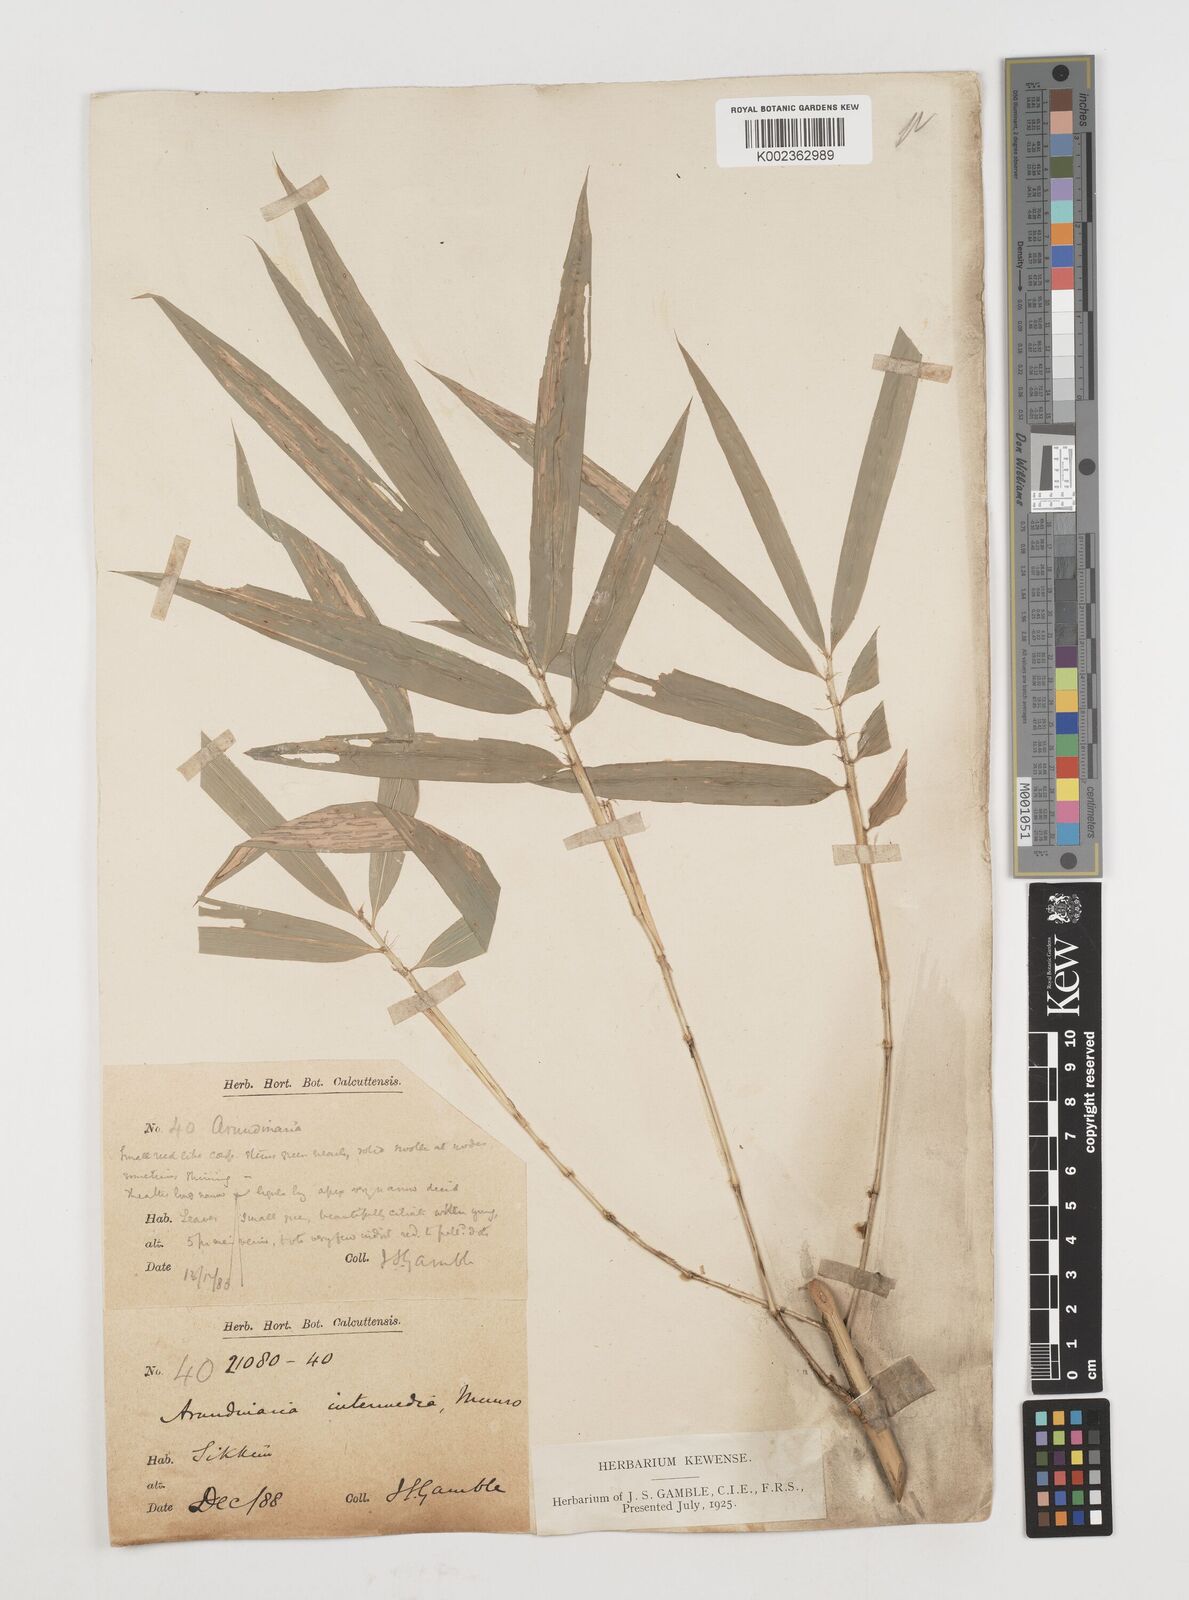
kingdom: Plantae
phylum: Tracheophyta
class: Liliopsida
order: Poales
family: Poaceae
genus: Drepanostachyum
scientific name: Drepanostachyum intermedium
